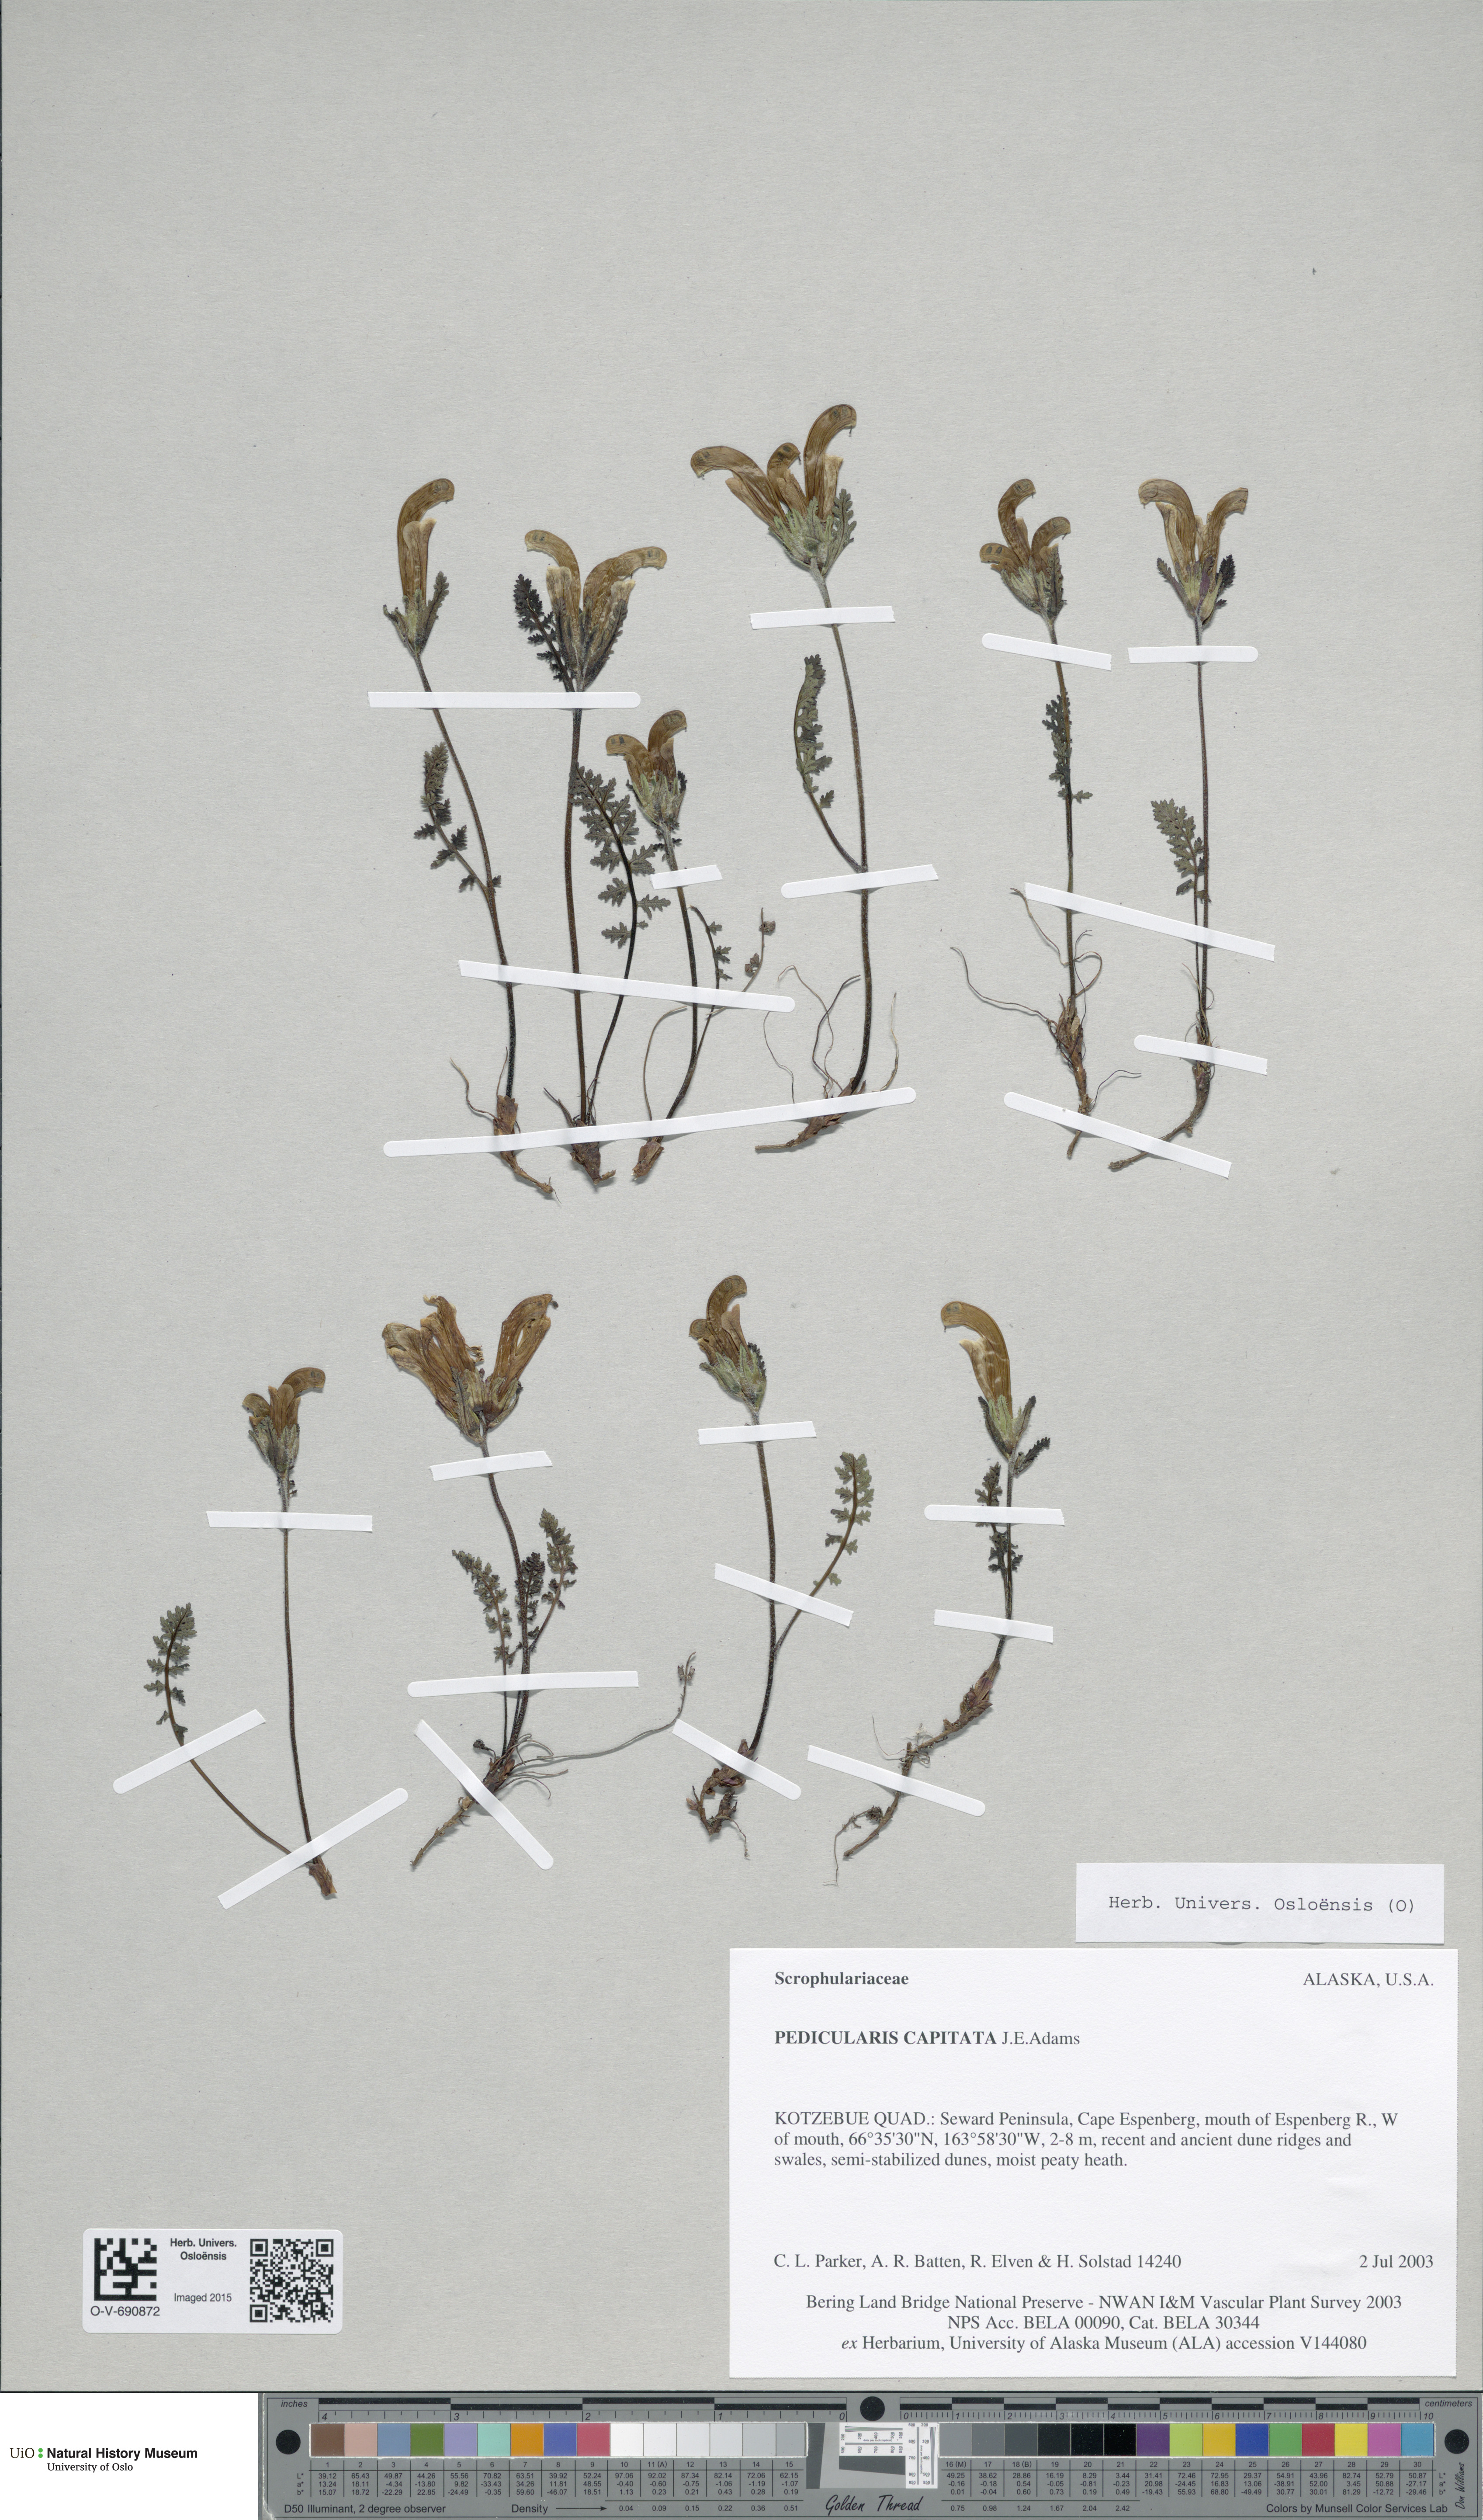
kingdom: Plantae
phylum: Tracheophyta
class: Magnoliopsida
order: Lamiales
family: Orobanchaceae
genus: Pedicularis
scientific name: Pedicularis capitata
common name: Capitate lousewort
